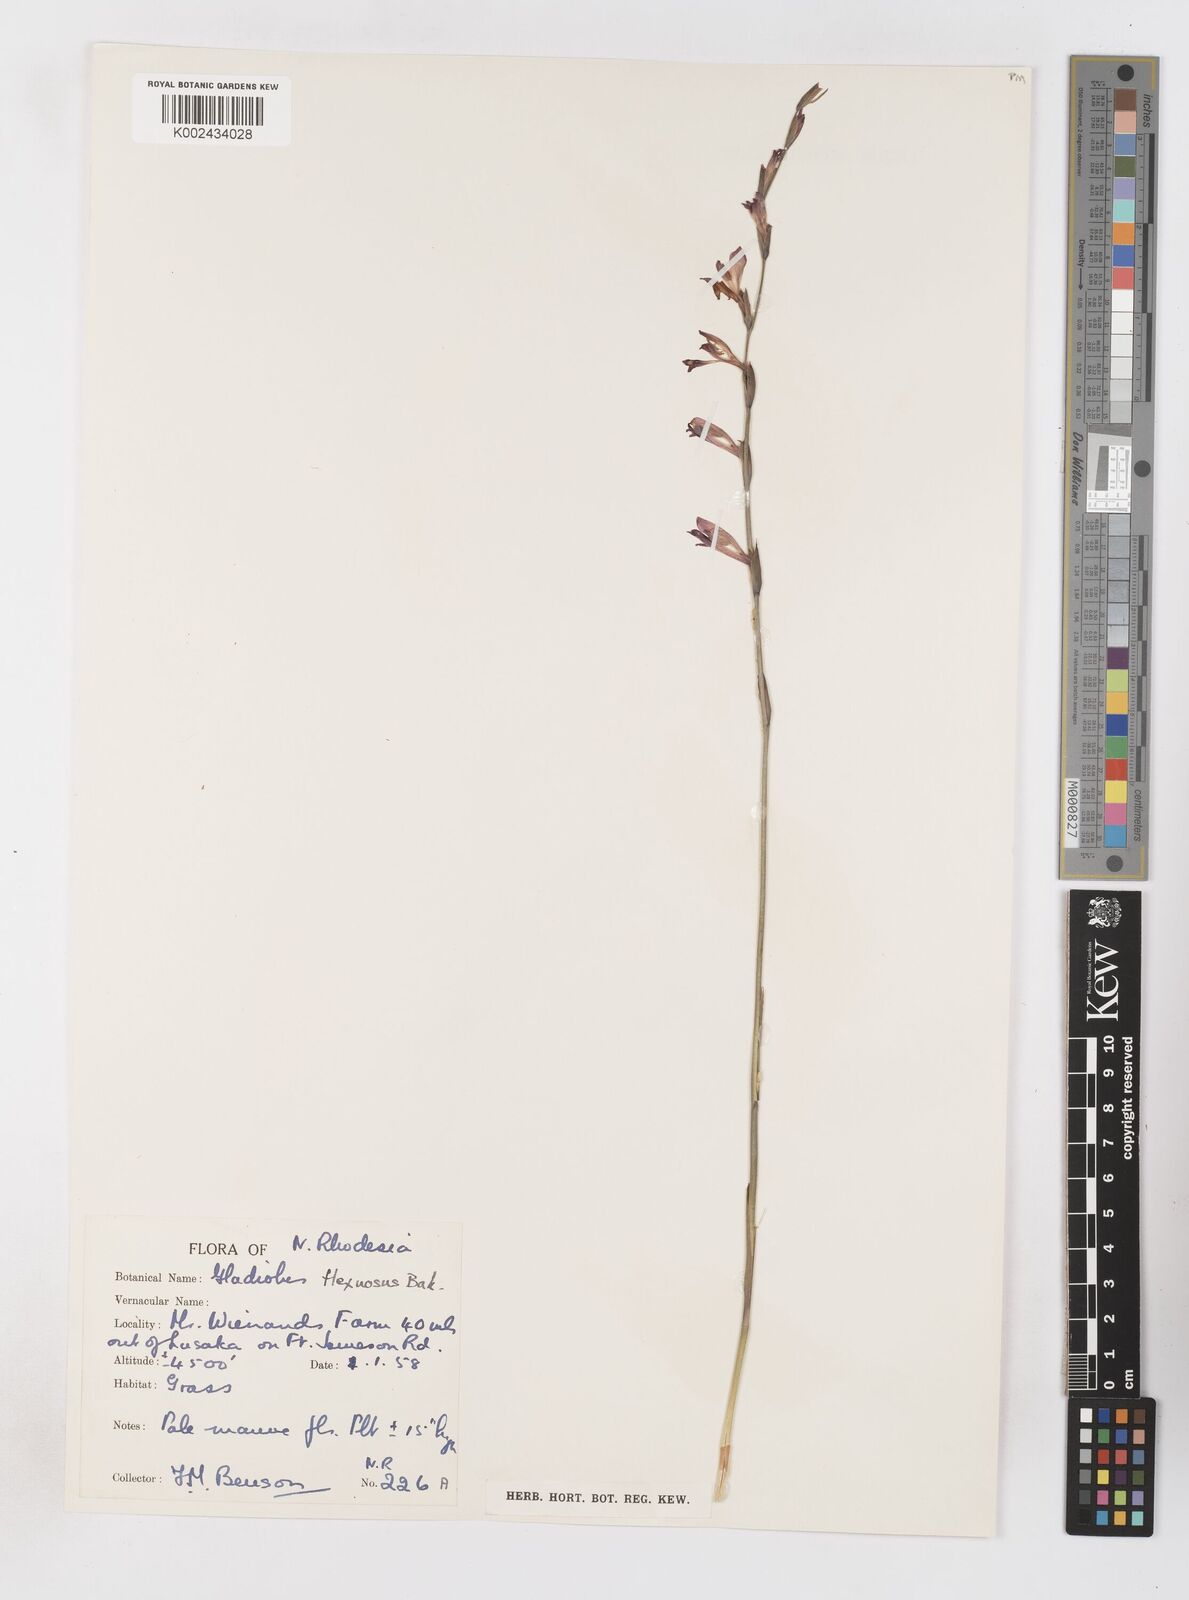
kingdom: Plantae
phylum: Tracheophyta
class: Liliopsida
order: Asparagales
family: Iridaceae
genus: Gladiolus
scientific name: Gladiolus atropurpureus
